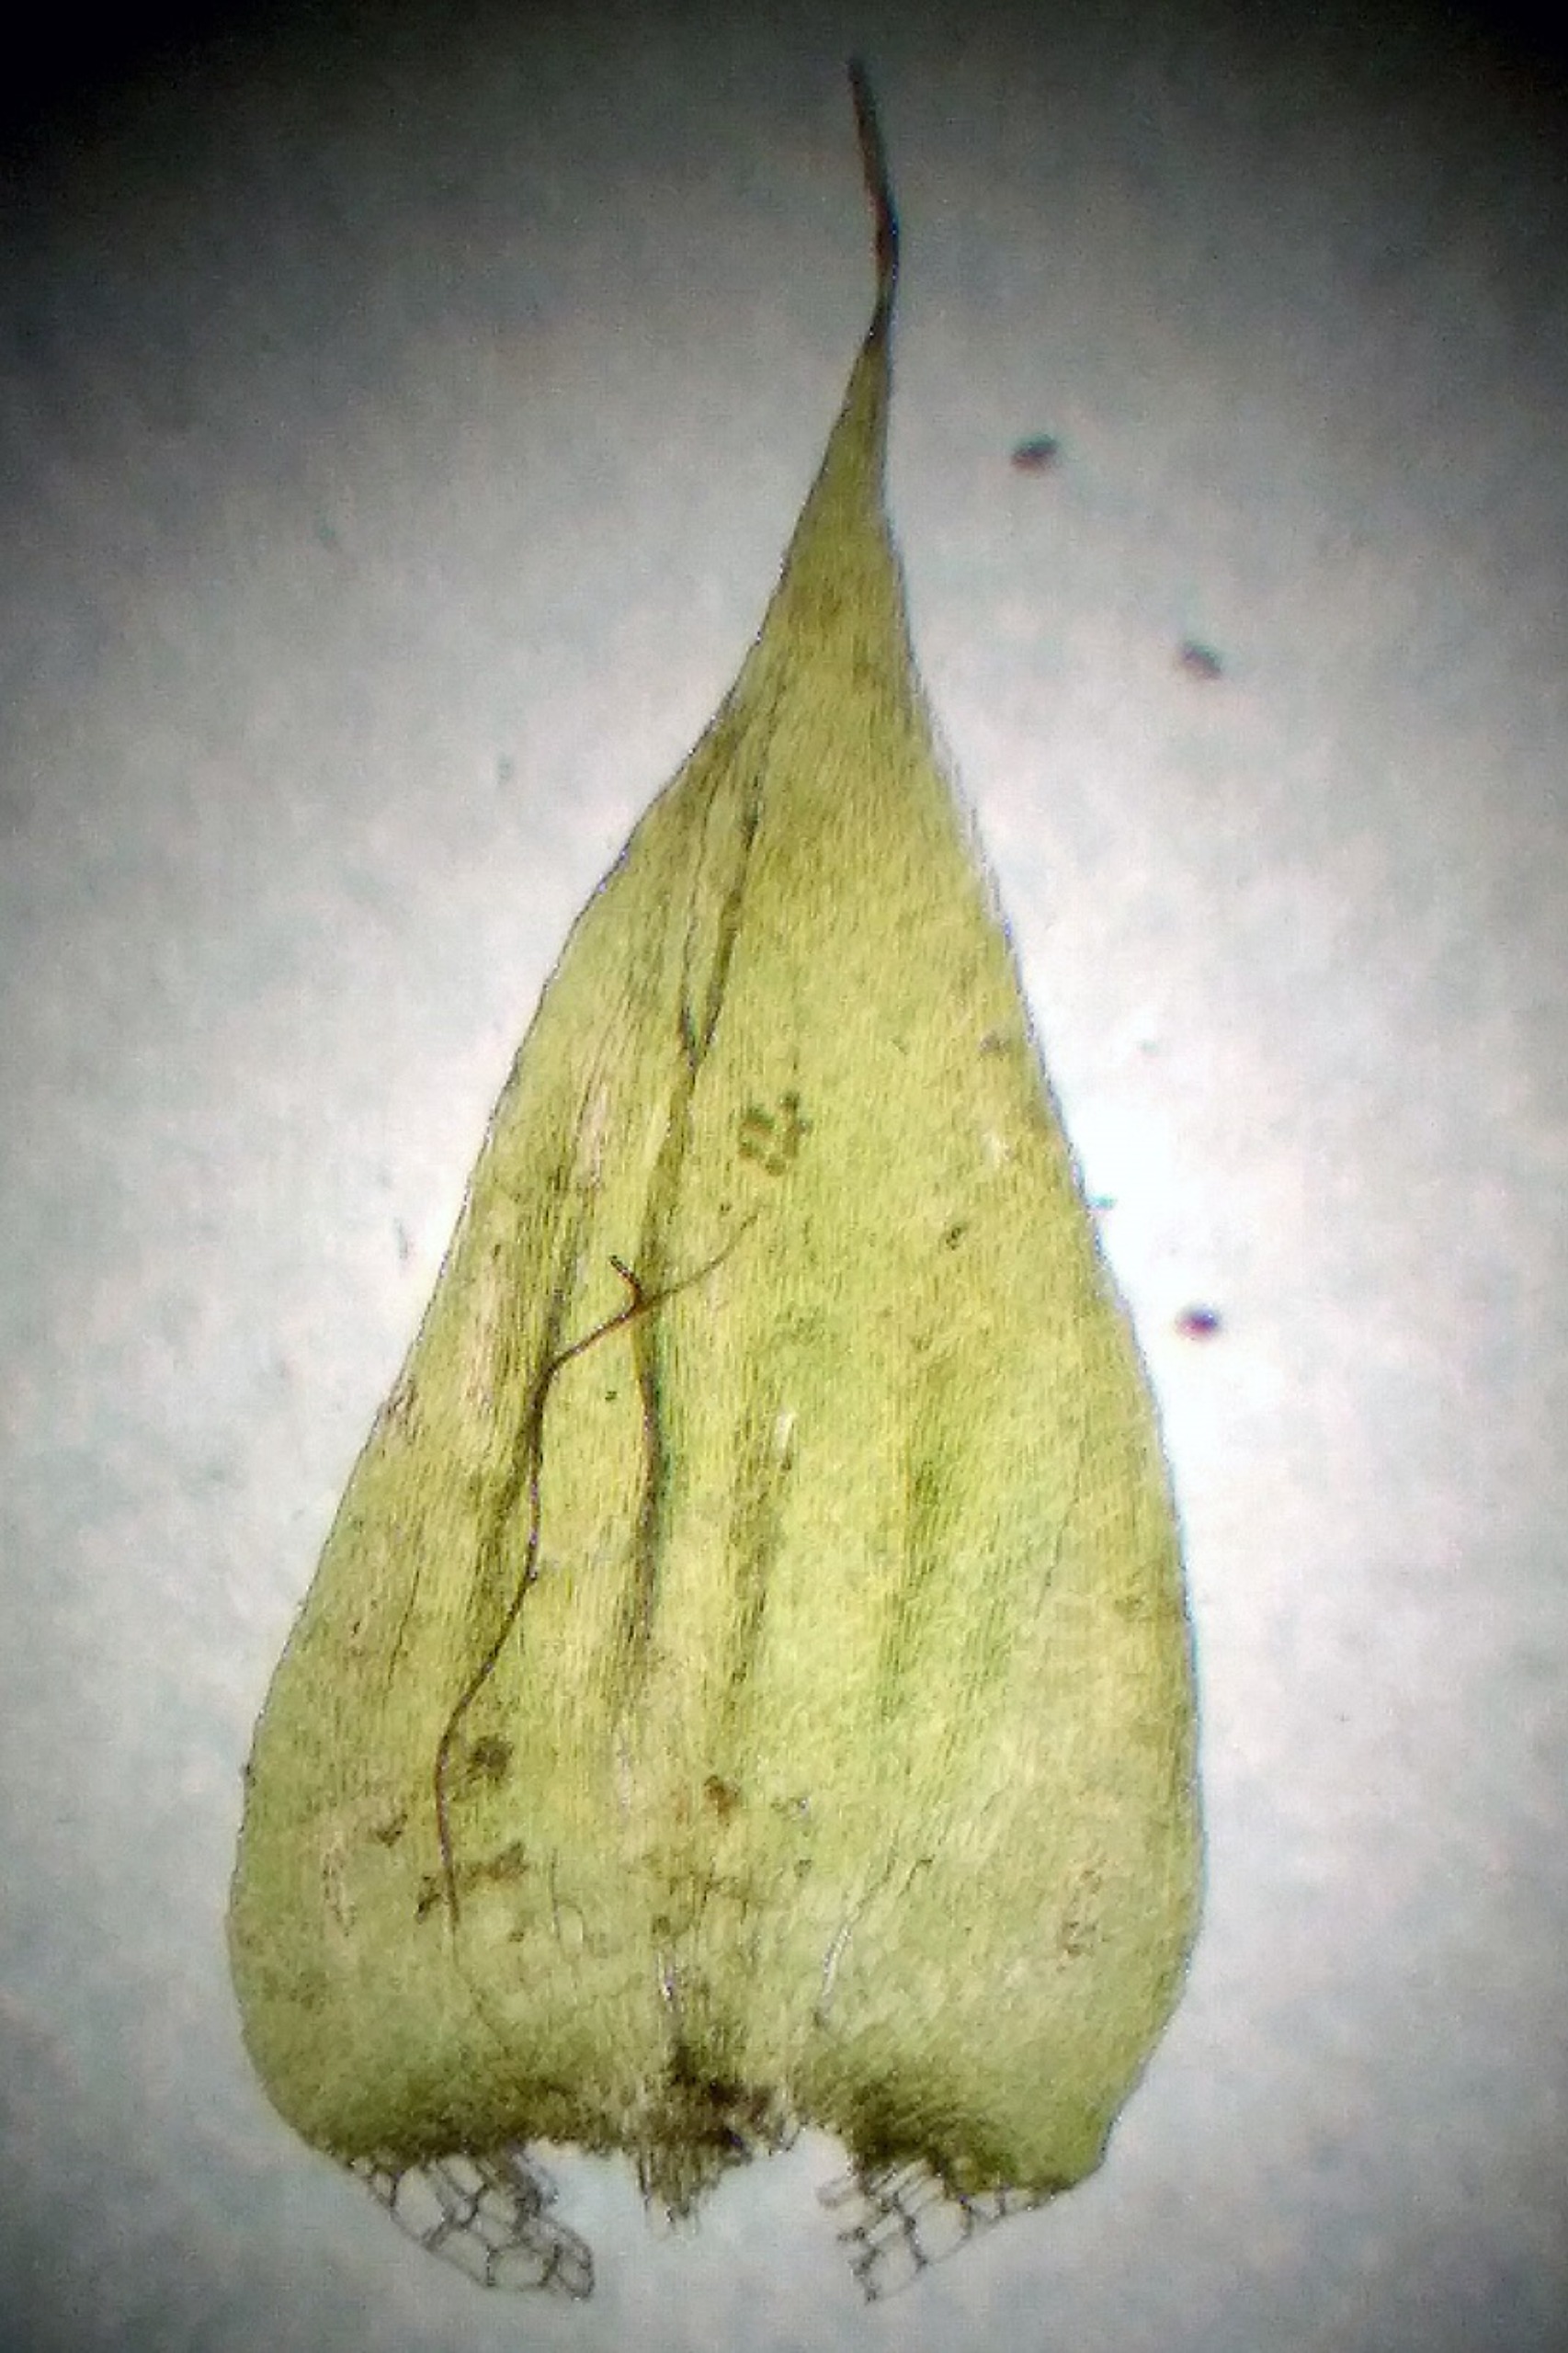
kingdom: Plantae
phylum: Bryophyta
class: Bryopsida
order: Hypnales
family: Plagiotheciaceae
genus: Herzogiella
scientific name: Herzogiella striatella
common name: Tæt pølsekapsel
